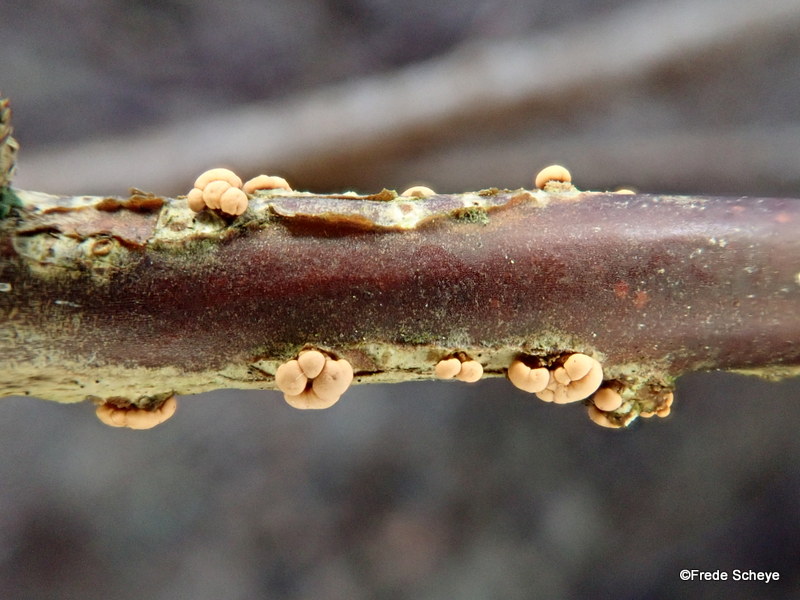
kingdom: Fungi
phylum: Ascomycota
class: Sordariomycetes
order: Hypocreales
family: Nectriaceae
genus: Nectria
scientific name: Nectria cinnabarina
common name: almindelig cinnobersvamp
